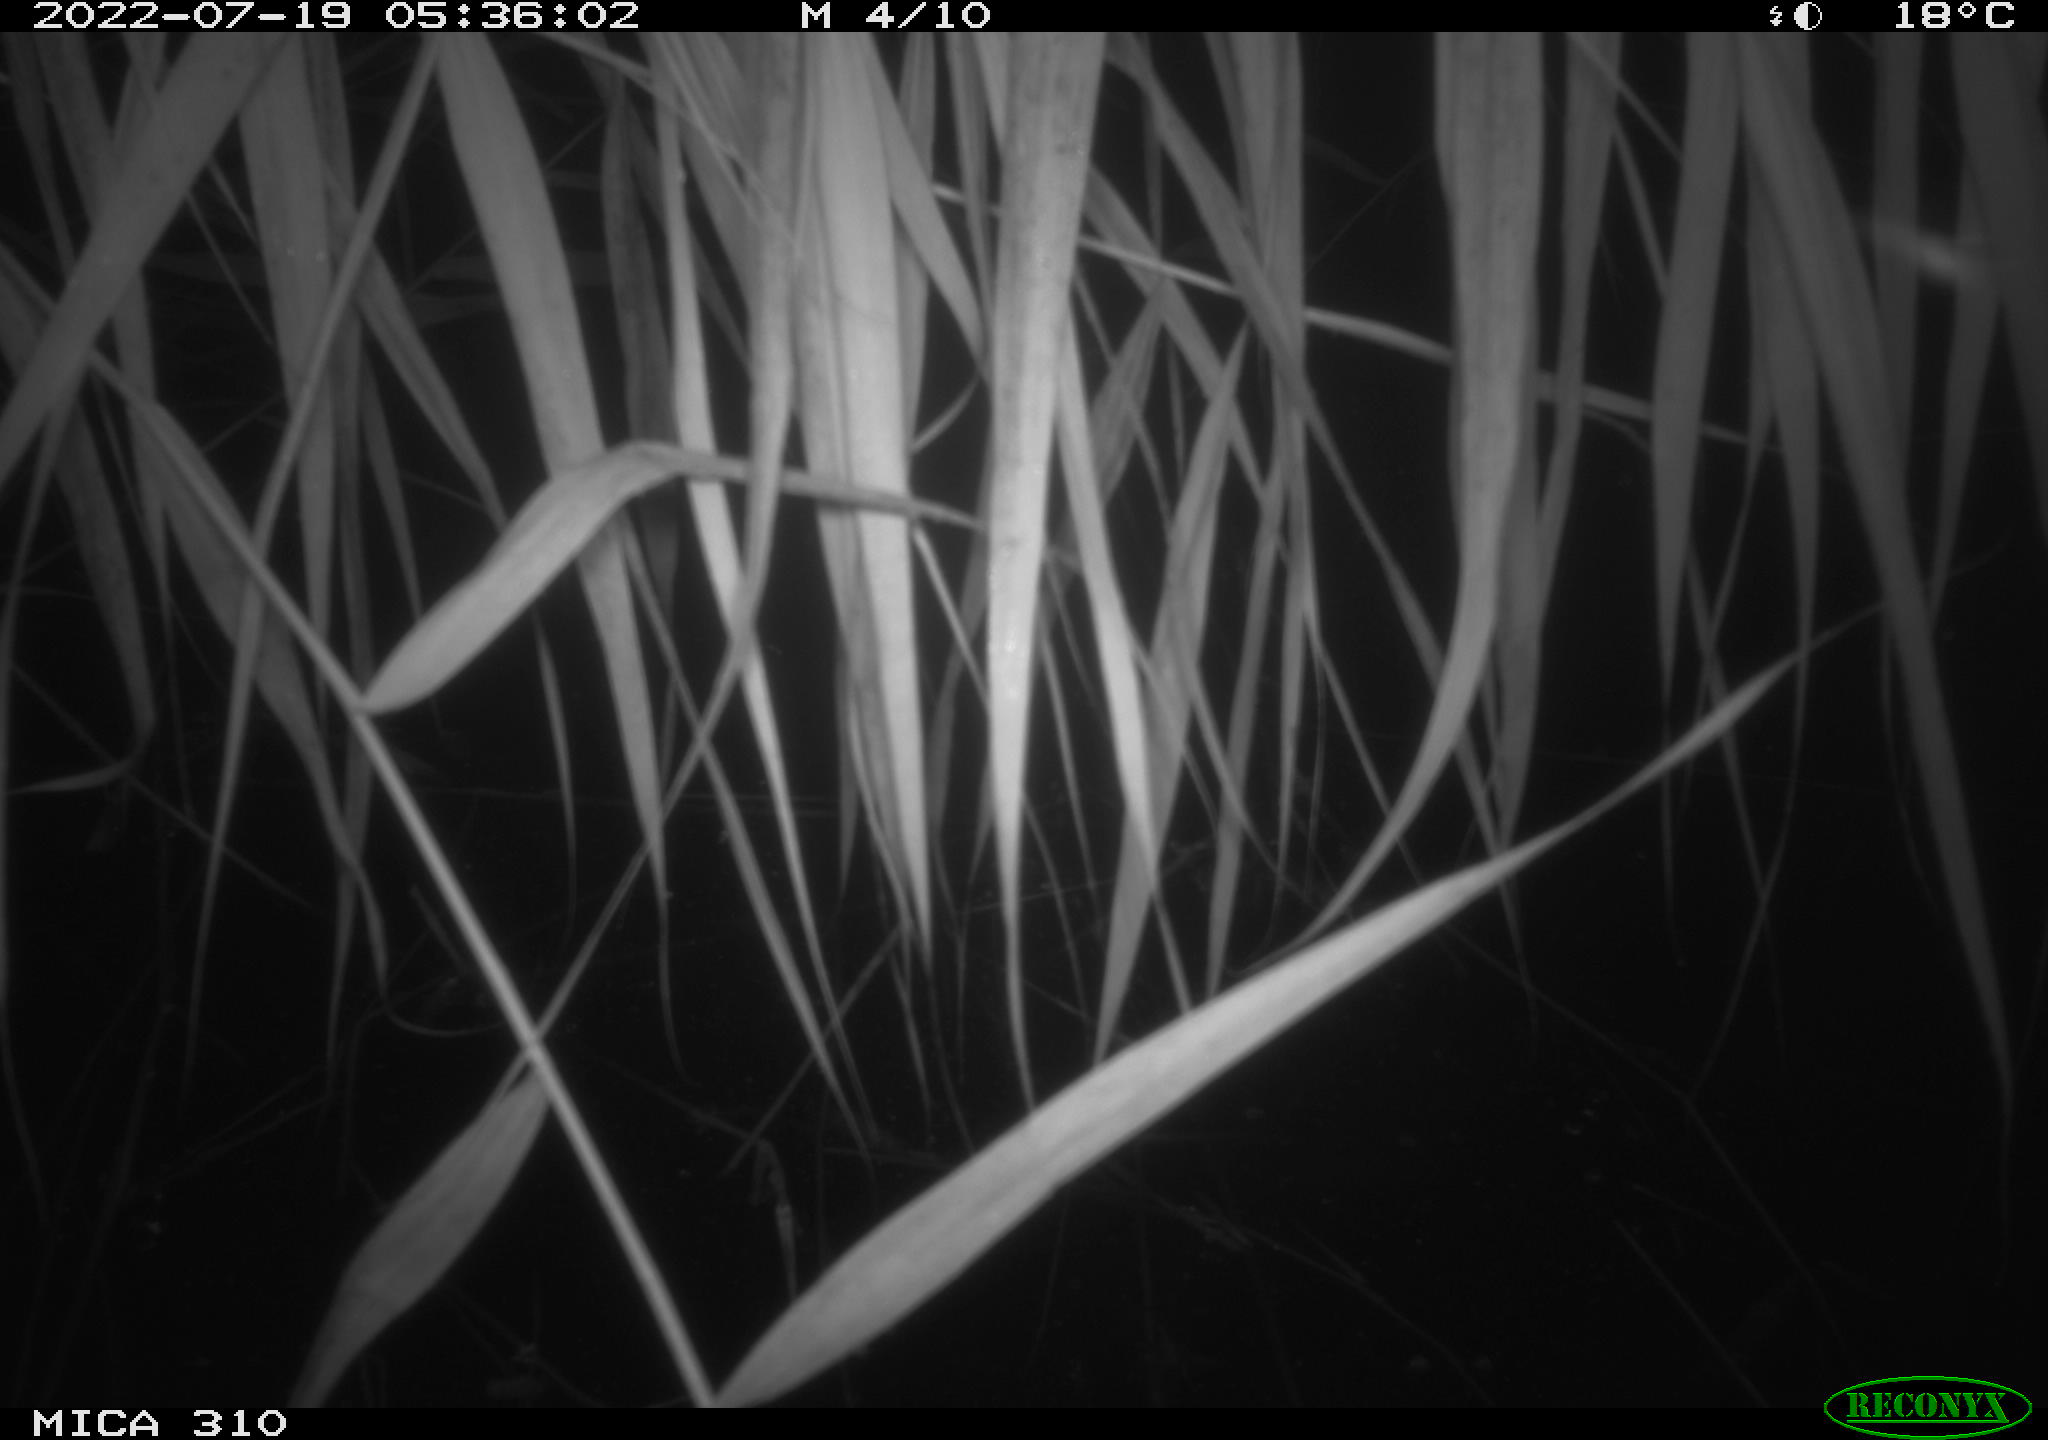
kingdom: Animalia
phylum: Chordata
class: Aves
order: Gruiformes
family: Rallidae
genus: Gallinula
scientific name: Gallinula chloropus
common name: Common moorhen
